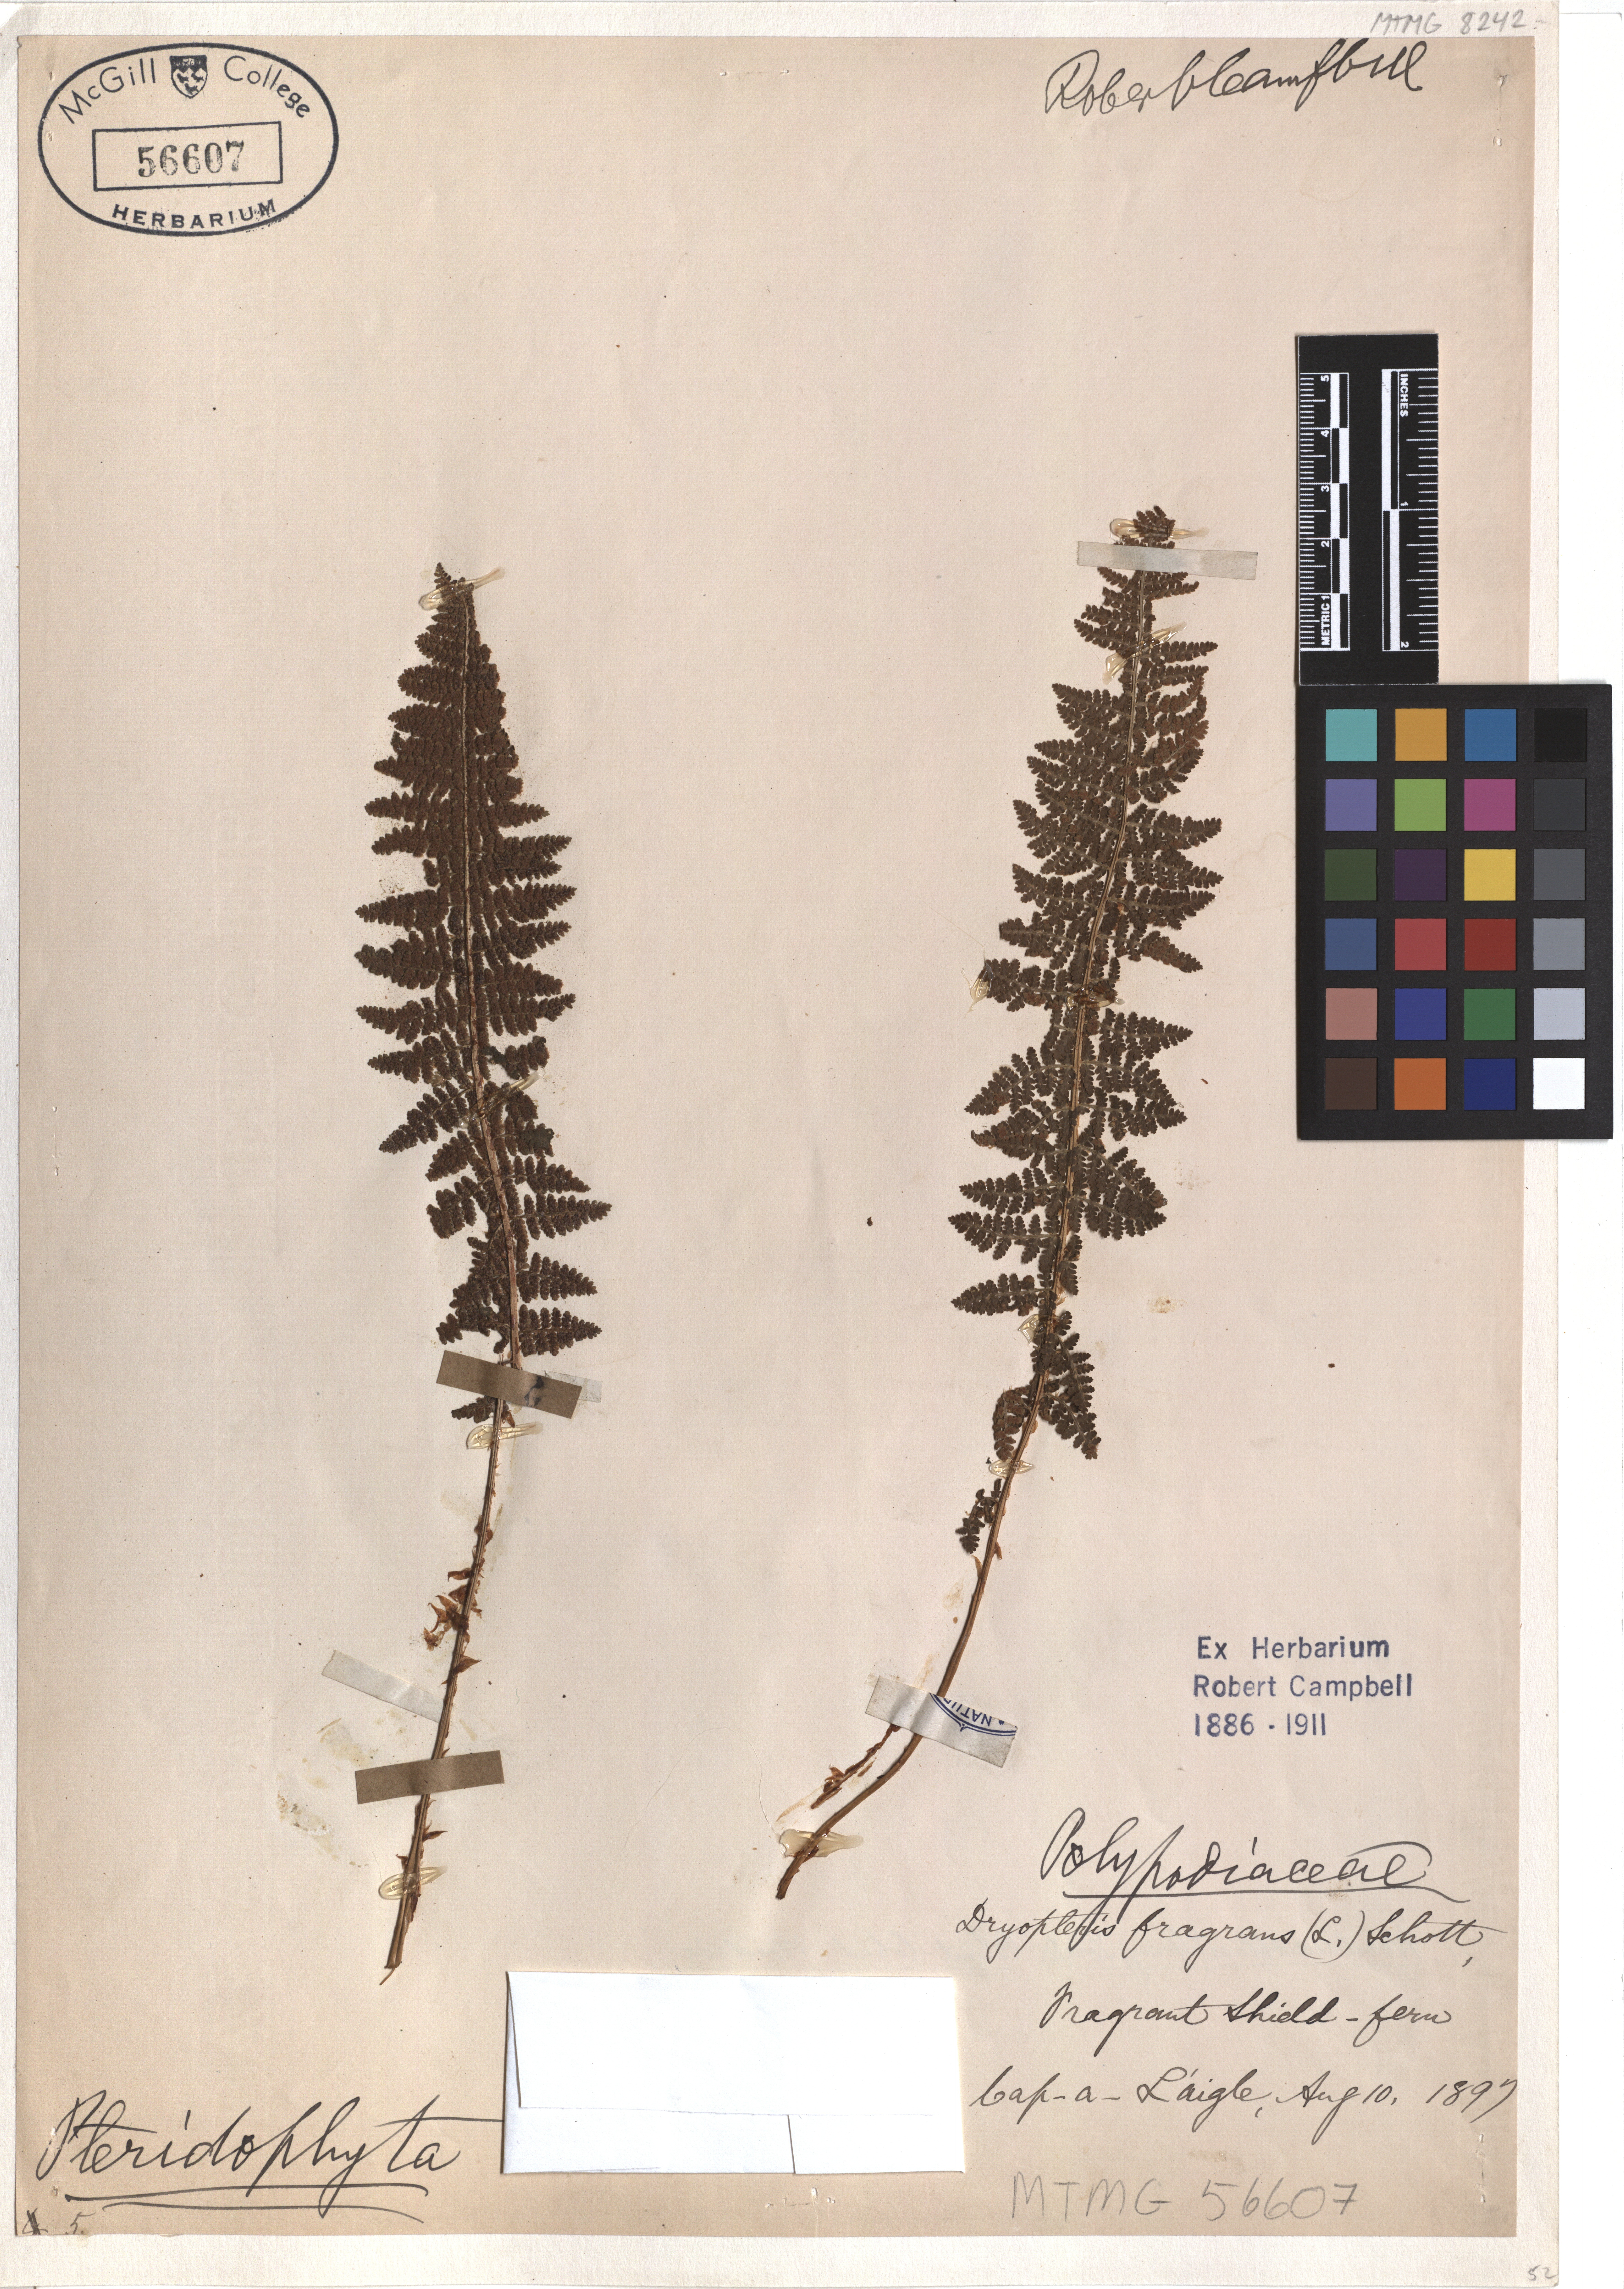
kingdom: Plantae
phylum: Tracheophyta
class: Polypodiopsida
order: Polypodiales
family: Dryopteridaceae
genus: Dryopteris
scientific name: Dryopteris fragrans
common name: Fragrant wood fern
